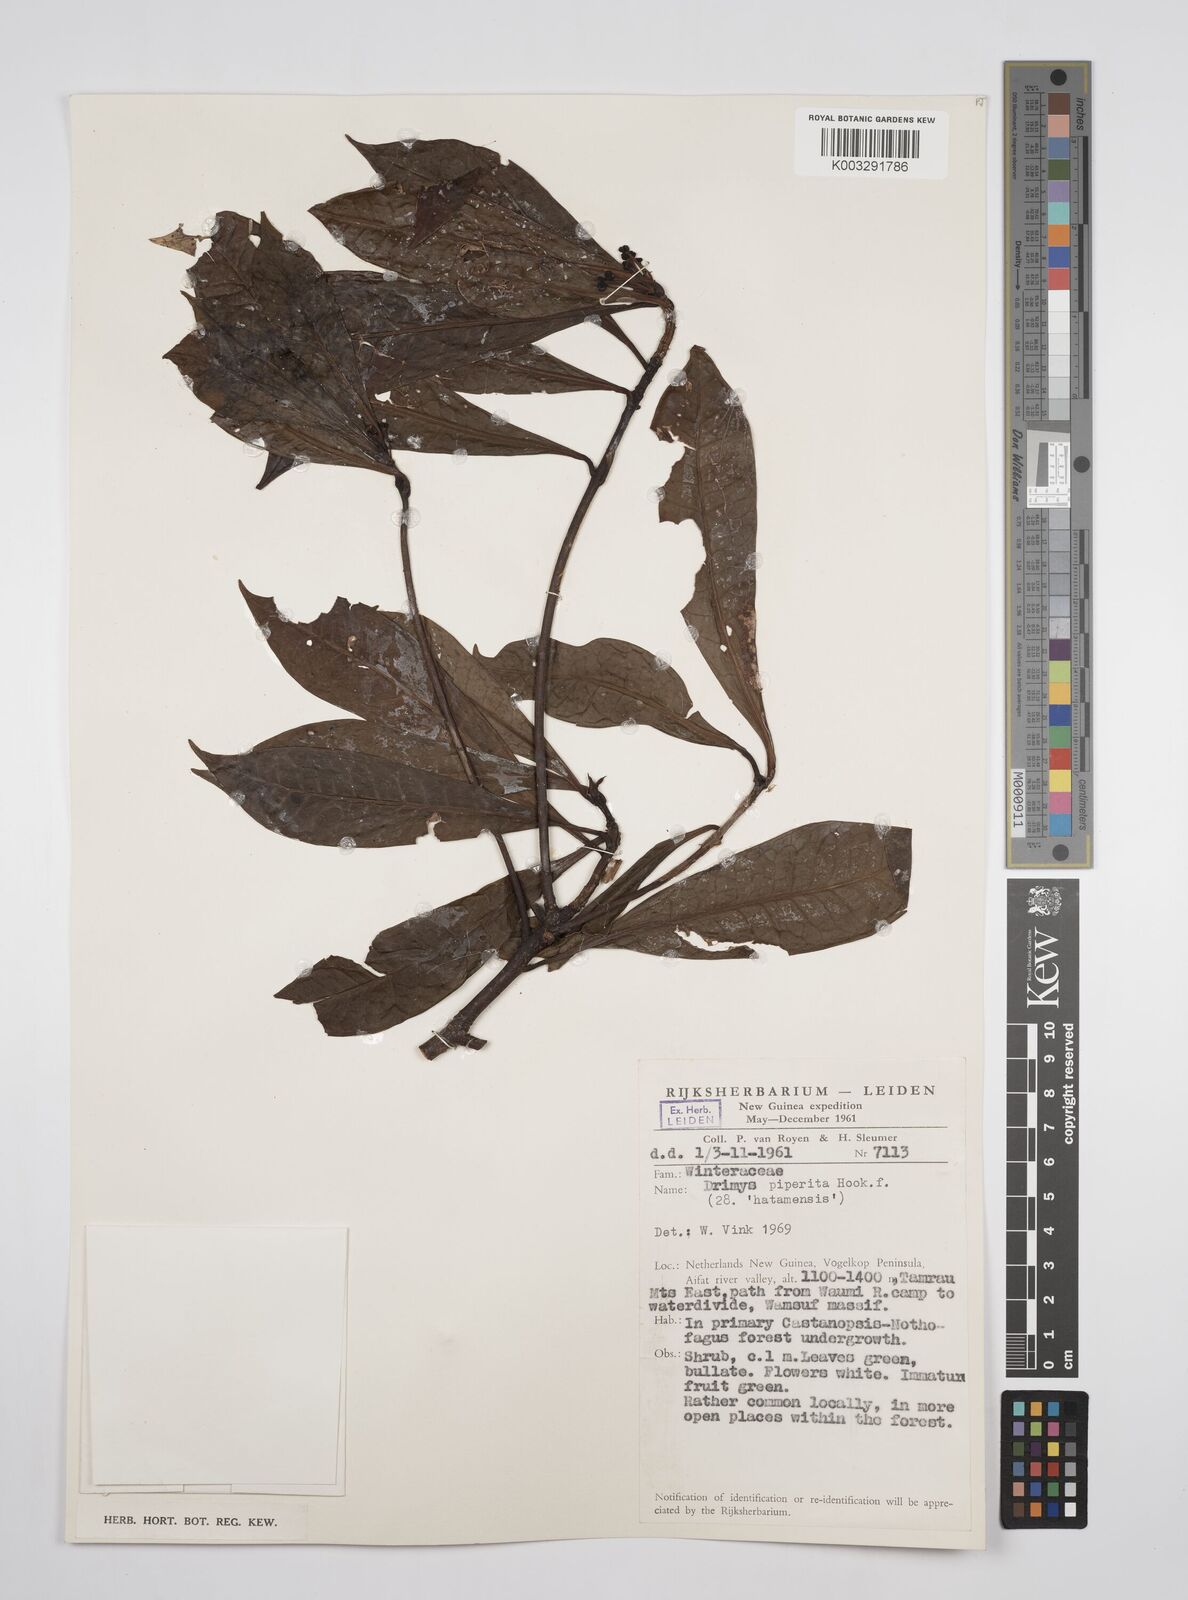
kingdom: Plantae
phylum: Tracheophyta
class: Magnoliopsida
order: Canellales
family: Winteraceae
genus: Drimys
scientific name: Drimys piperita
